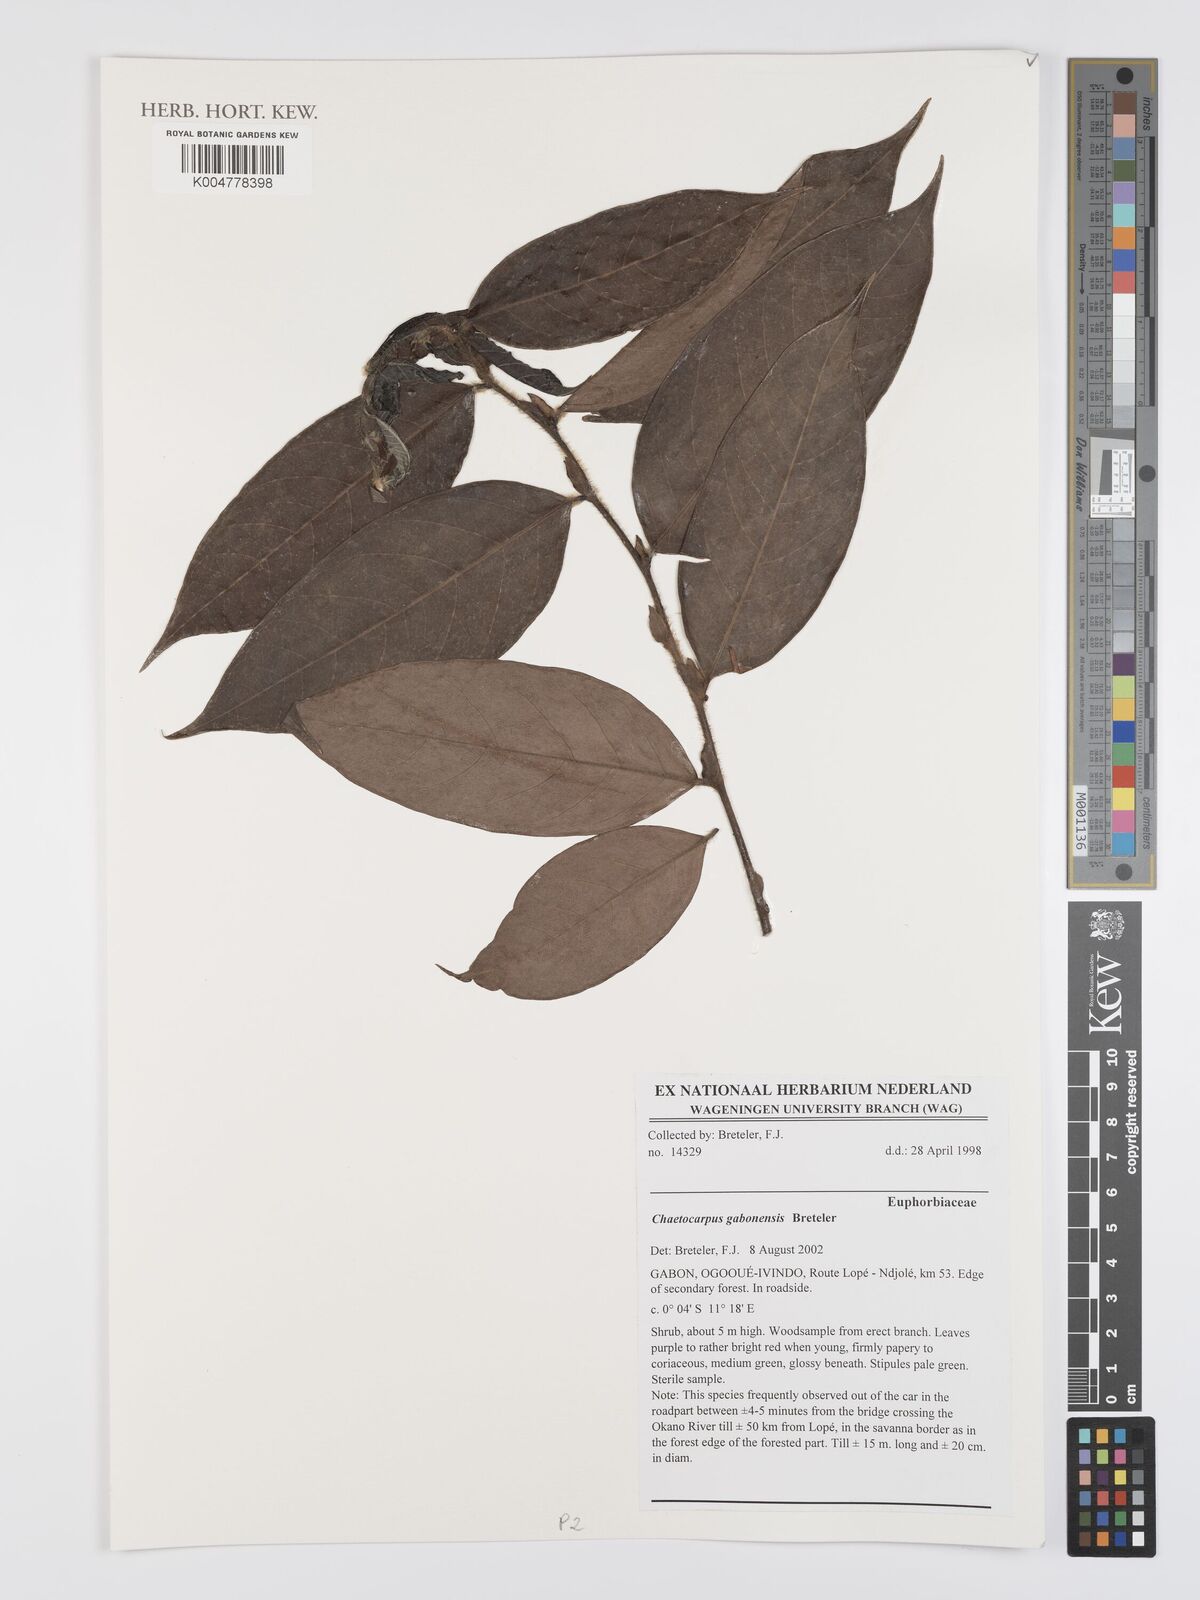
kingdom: Plantae
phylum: Tracheophyta
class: Magnoliopsida
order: Malpighiales
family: Peraceae
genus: Chaetocarpus
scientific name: Chaetocarpus gabonensis
